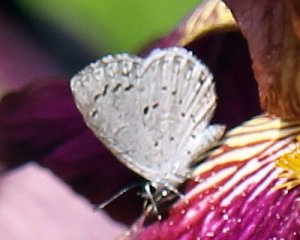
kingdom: Animalia
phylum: Arthropoda
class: Insecta
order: Lepidoptera
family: Lycaenidae
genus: Celastrina
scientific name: Celastrina serotina
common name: Cherry Gall Azure
